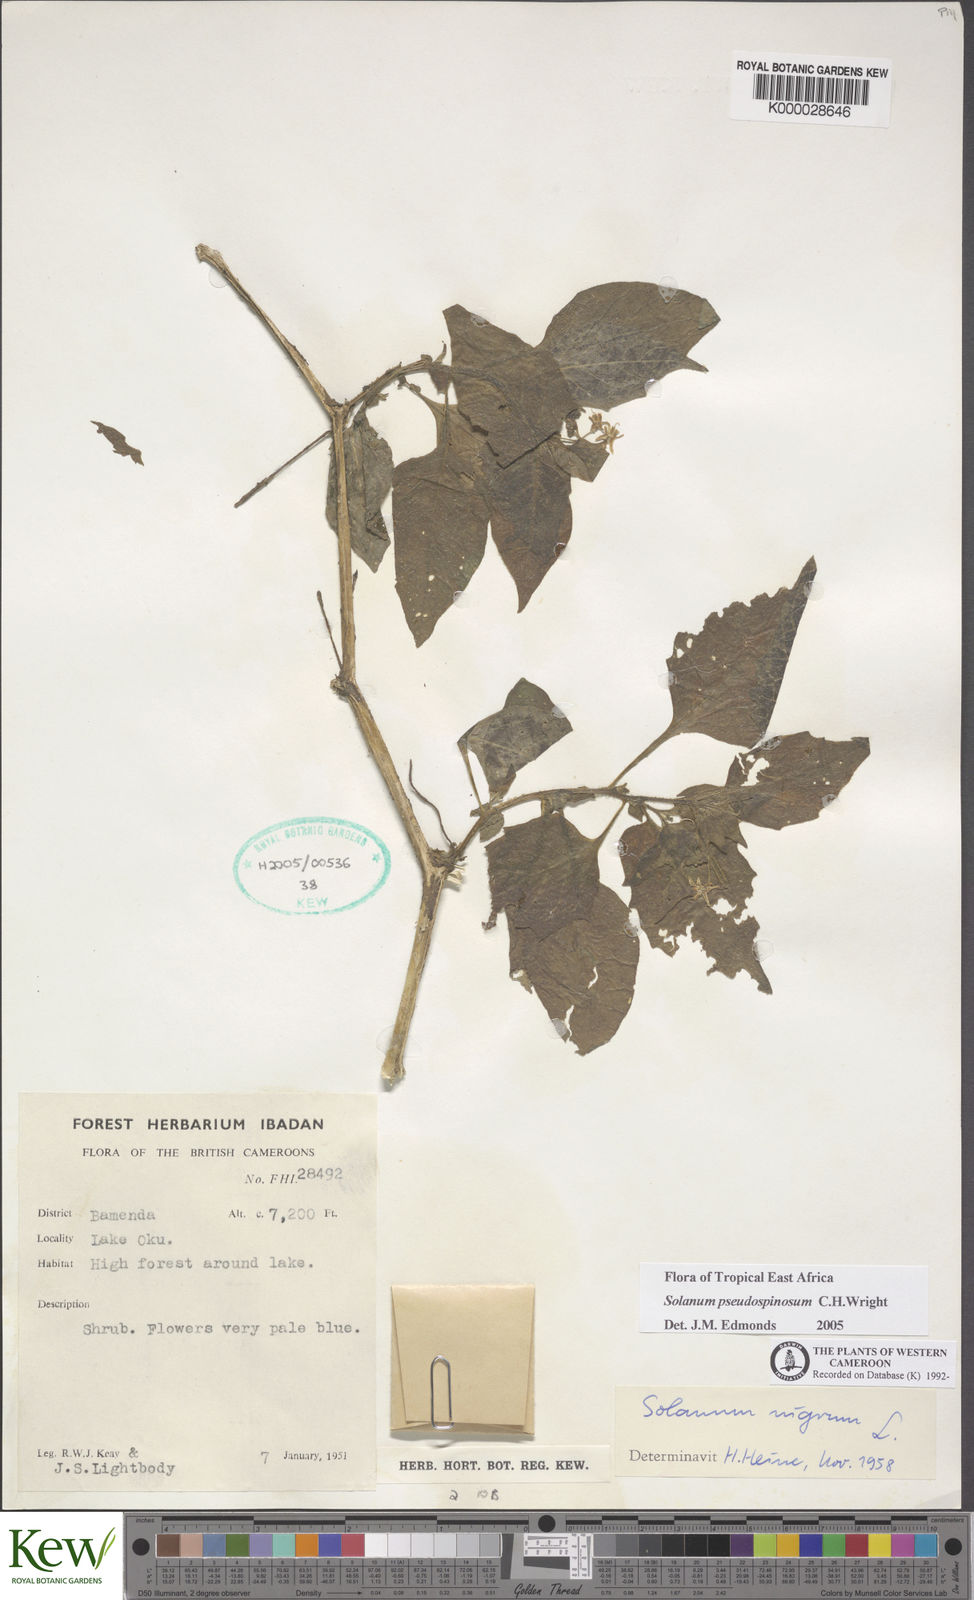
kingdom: Plantae
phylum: Tracheophyta
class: Magnoliopsida
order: Solanales
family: Solanaceae
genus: Solanum
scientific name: Solanum nigrum
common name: Black nightshade
